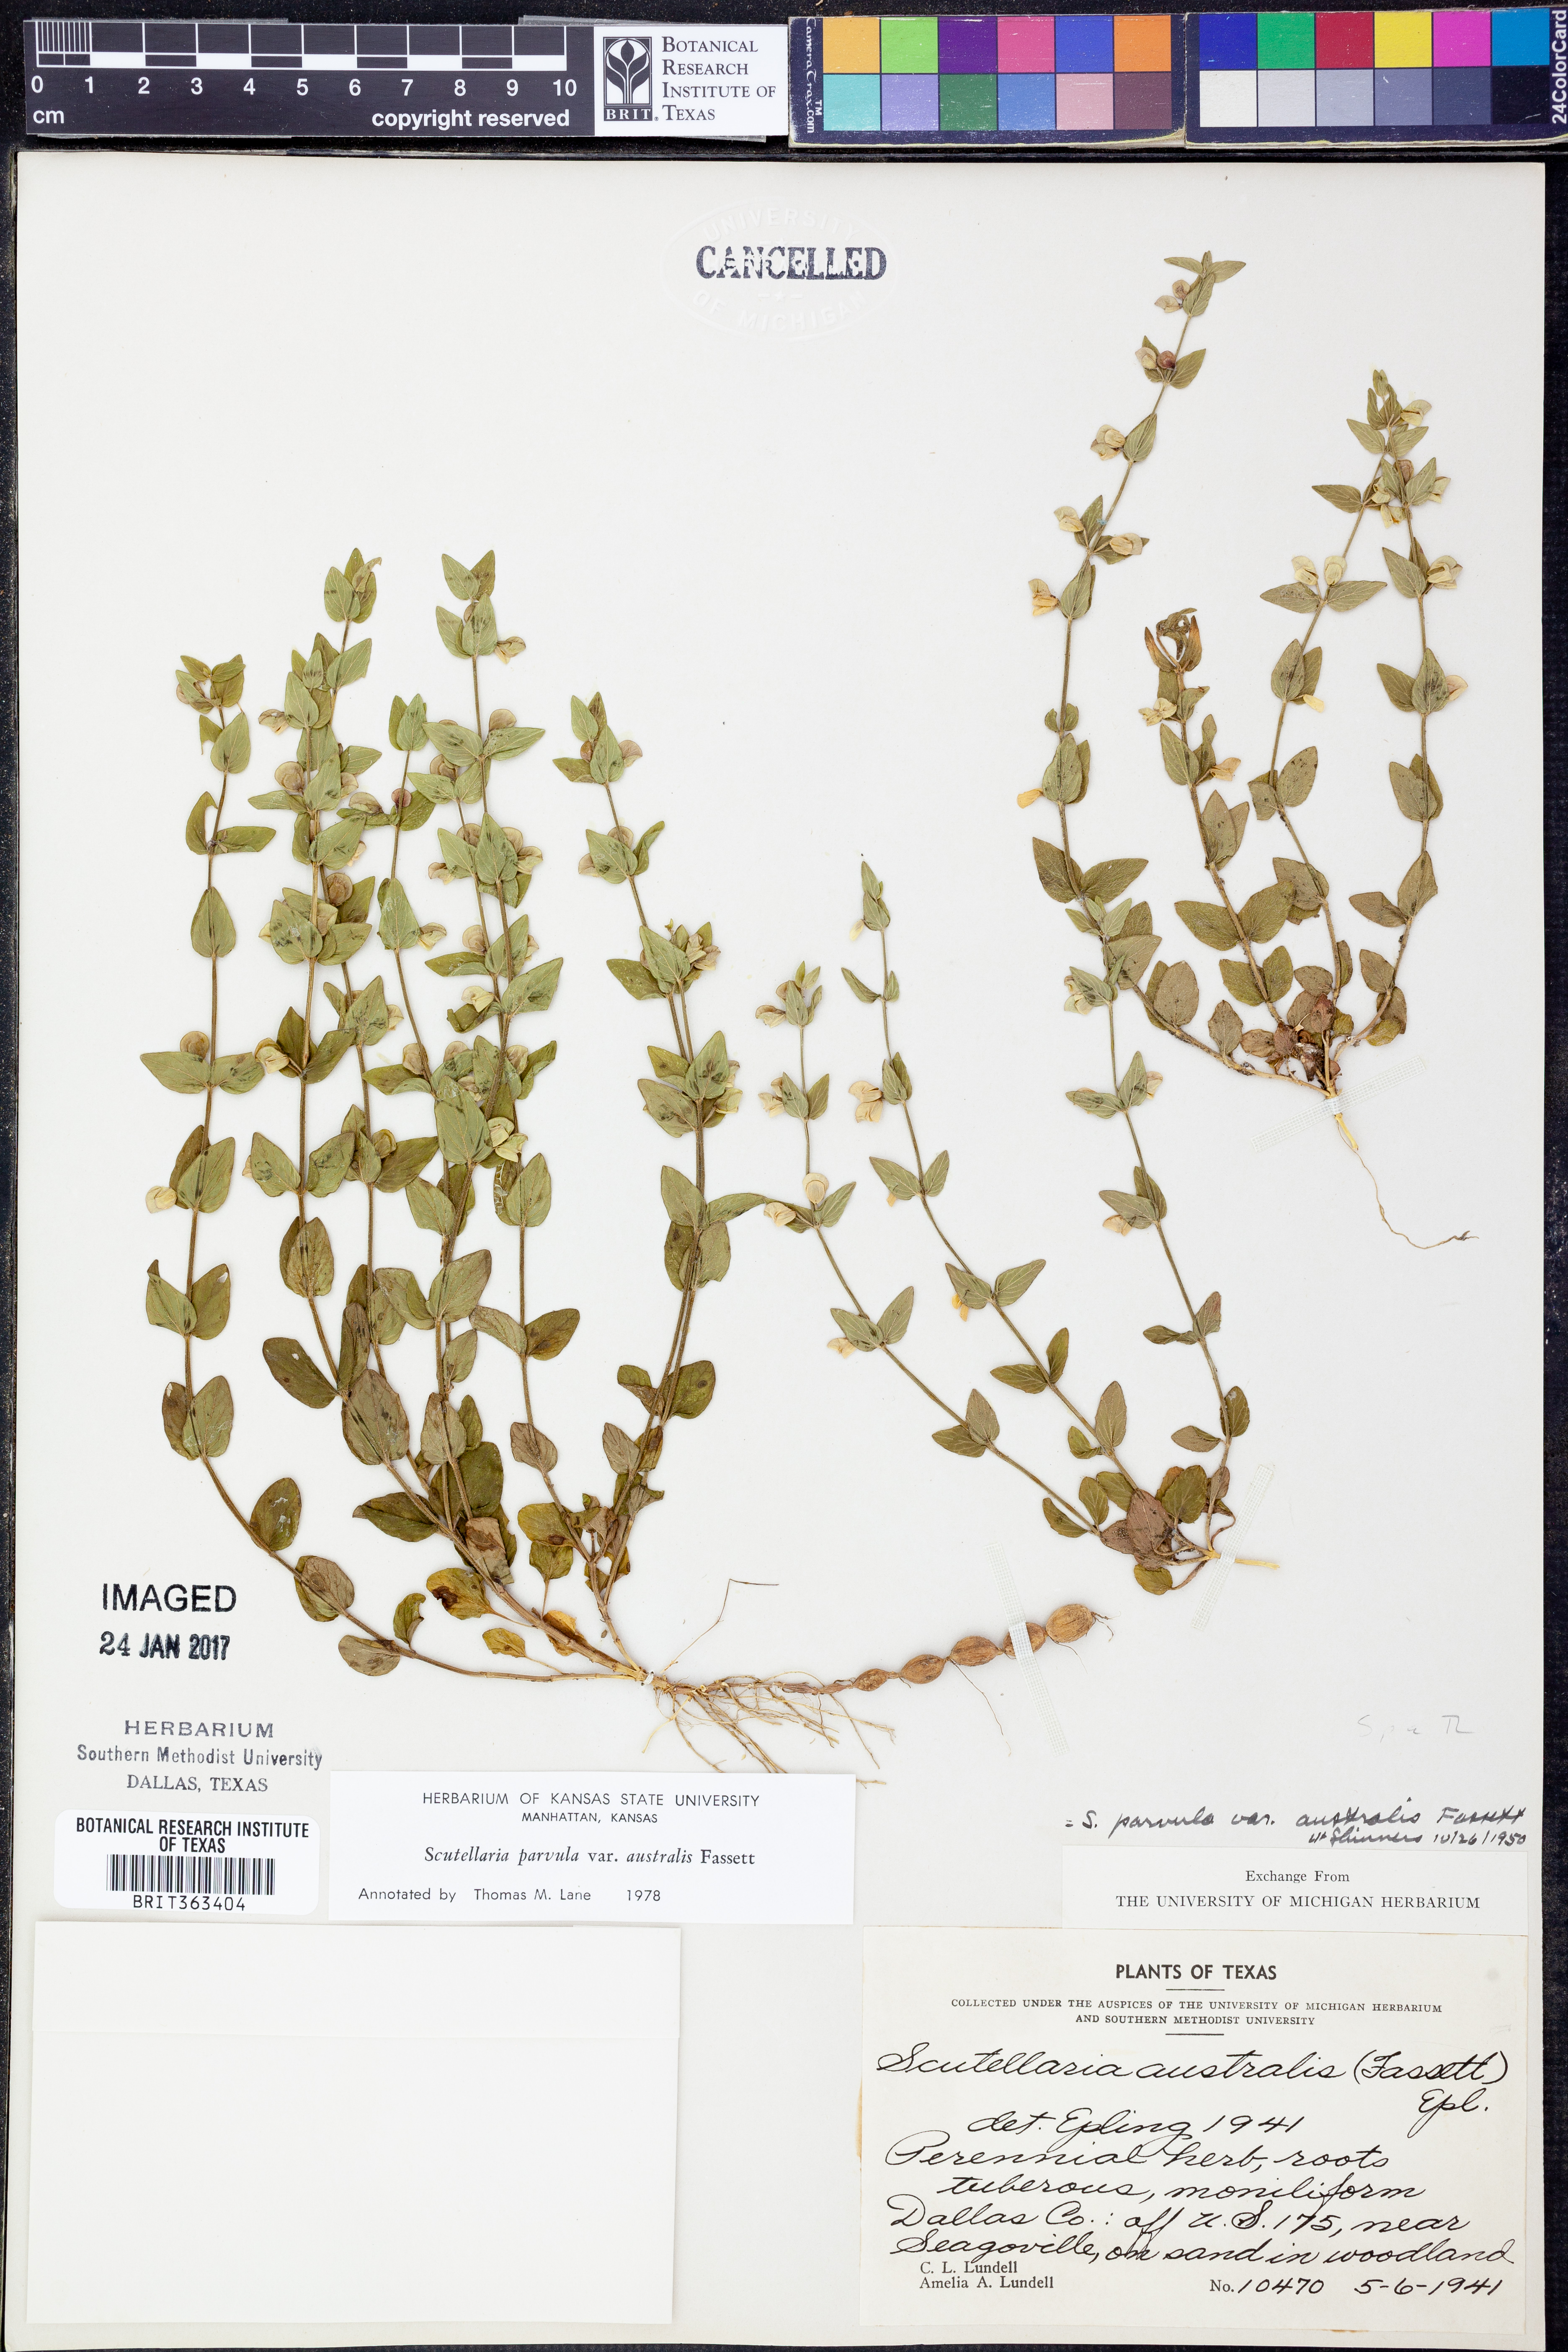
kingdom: Plantae
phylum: Tracheophyta
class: Magnoliopsida
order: Lamiales
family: Lamiaceae
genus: Scutellaria
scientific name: Scutellaria parvula
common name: Little scullcap
